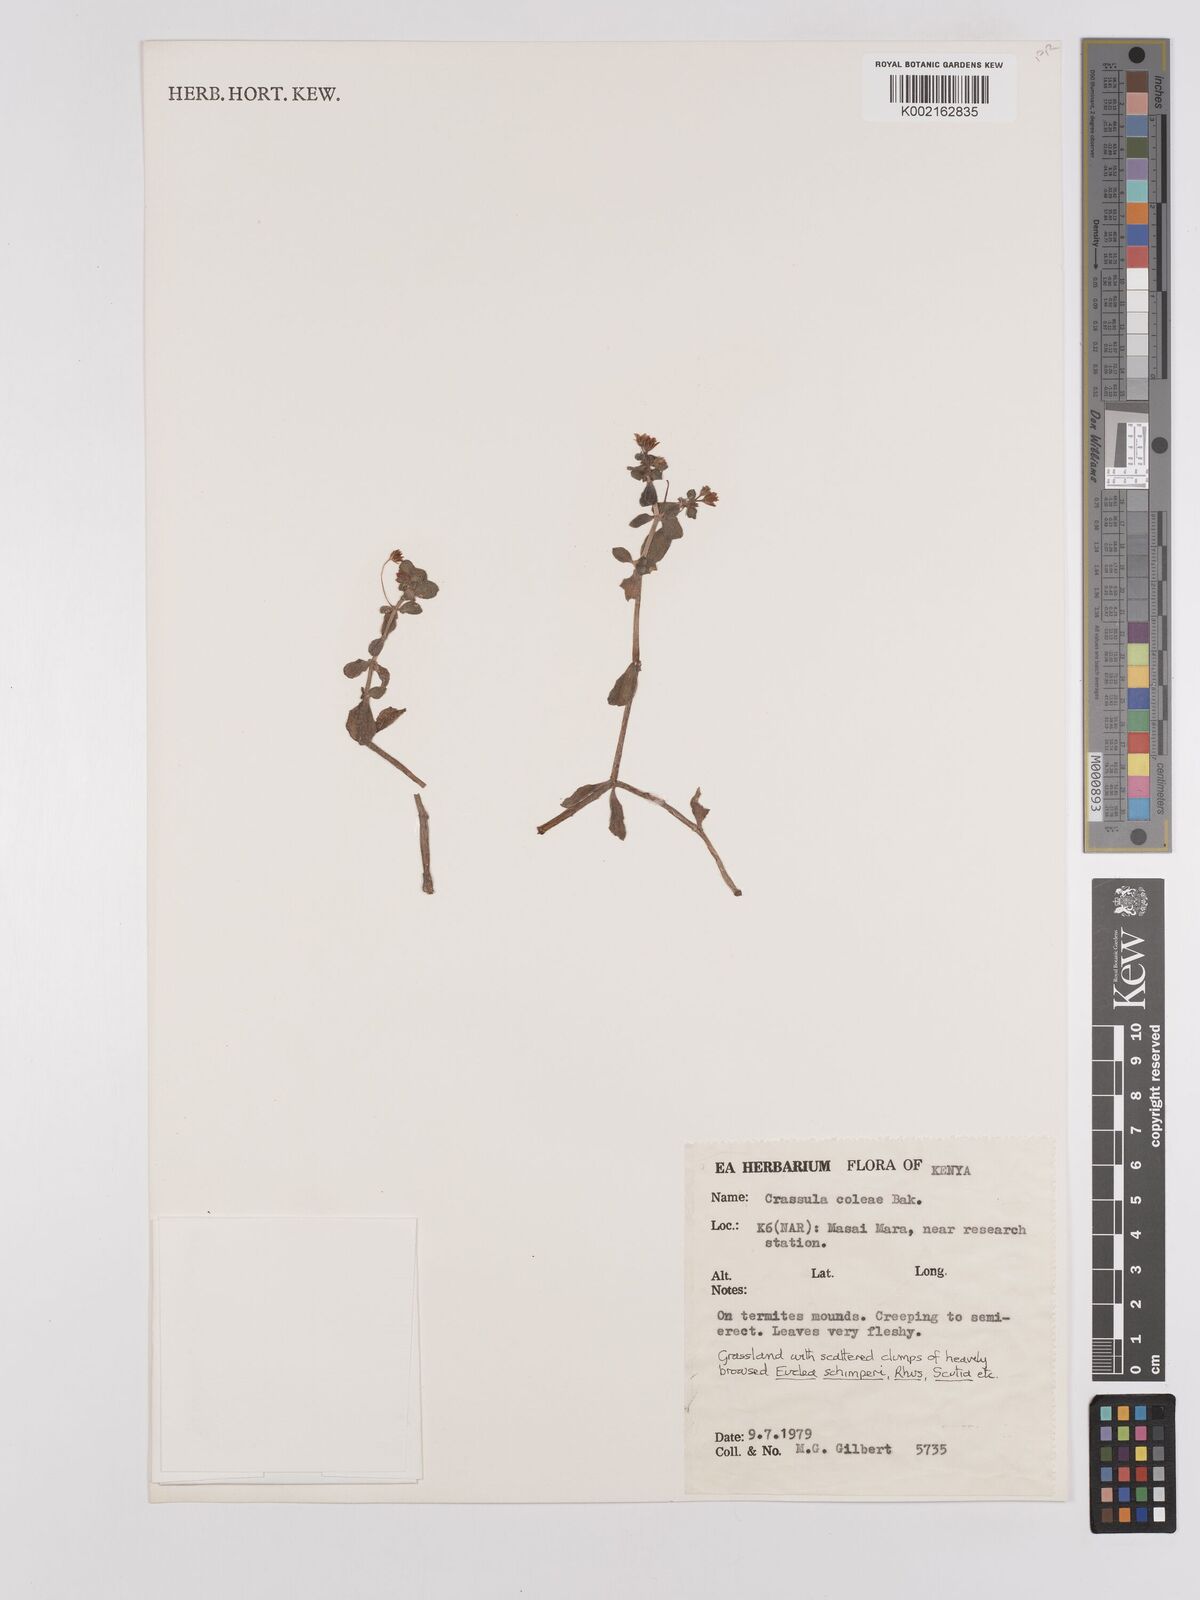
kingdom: Plantae
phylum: Tracheophyta
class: Magnoliopsida
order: Saxifragales
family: Crassulaceae
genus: Crassula
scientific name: Crassula volkensii
